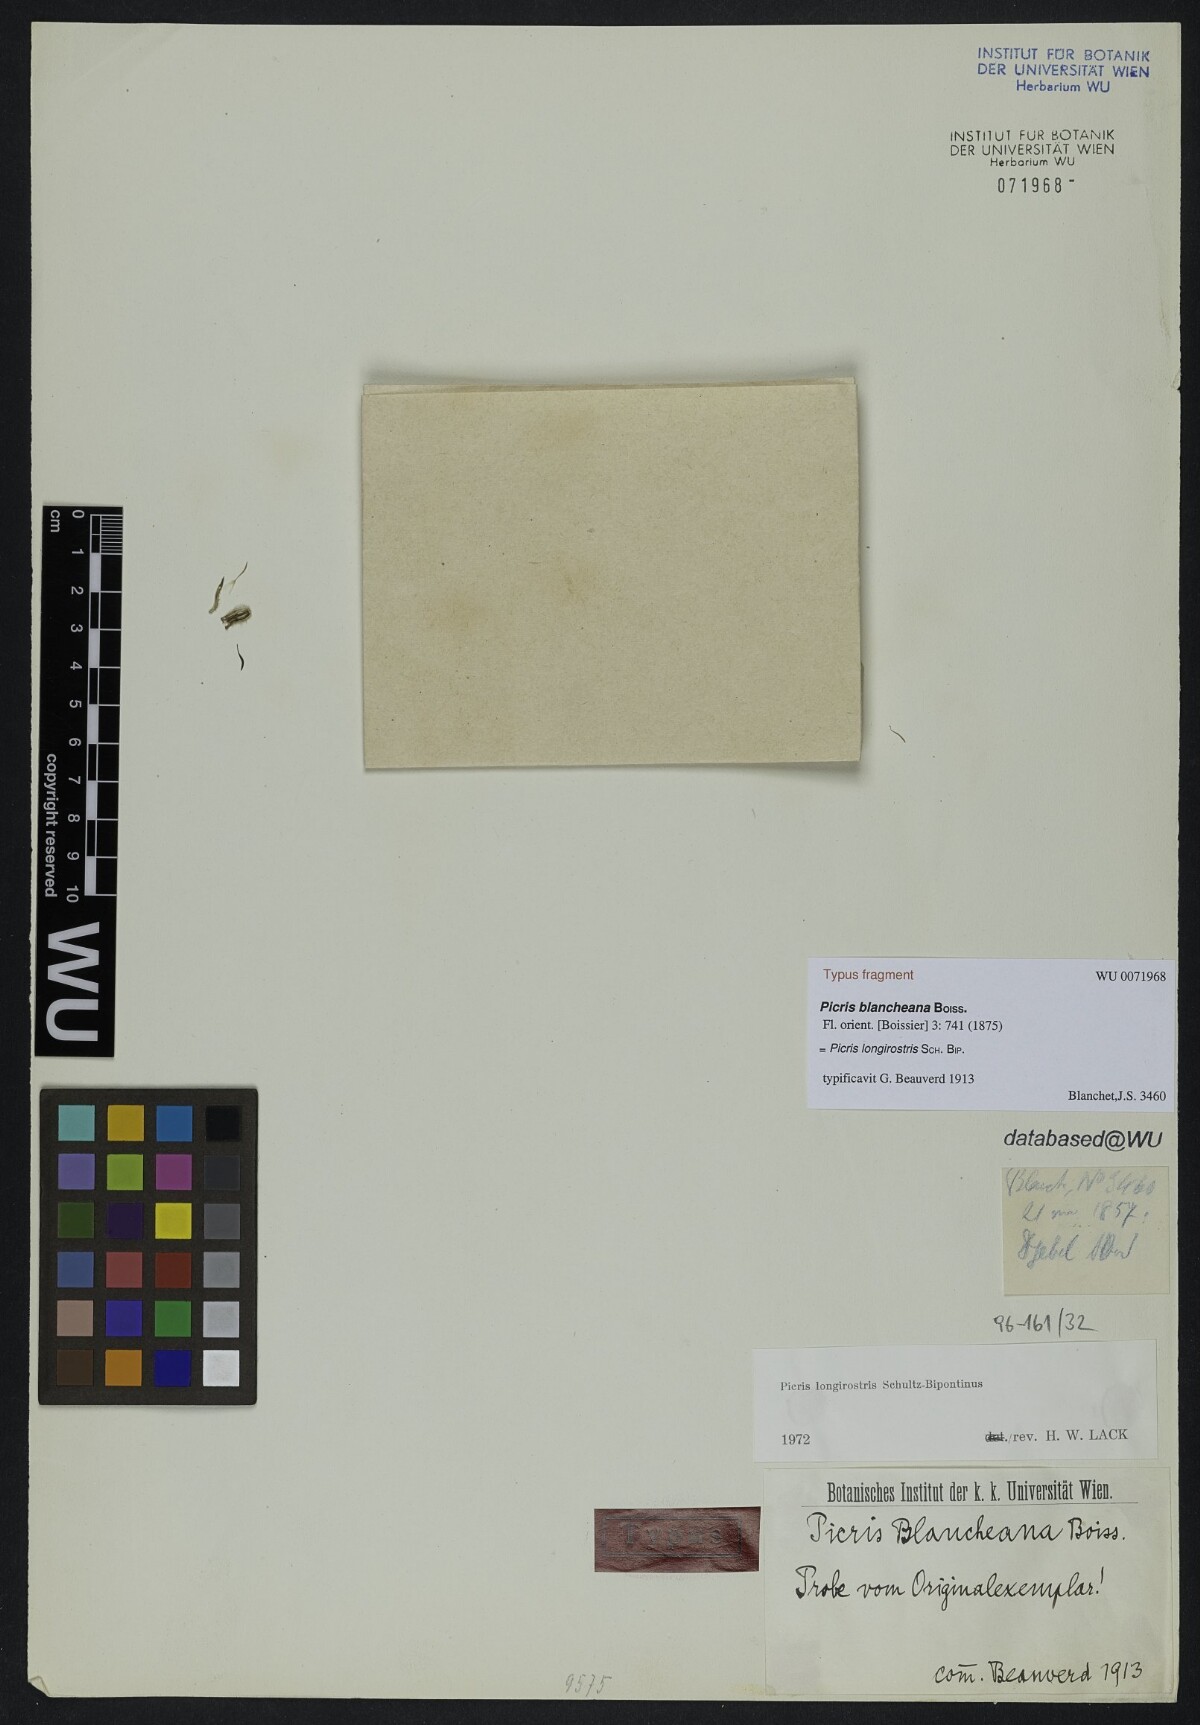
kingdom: Plantae
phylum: Tracheophyta
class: Magnoliopsida
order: Asterales
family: Asteraceae
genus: Picris
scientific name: Picris longirostris
